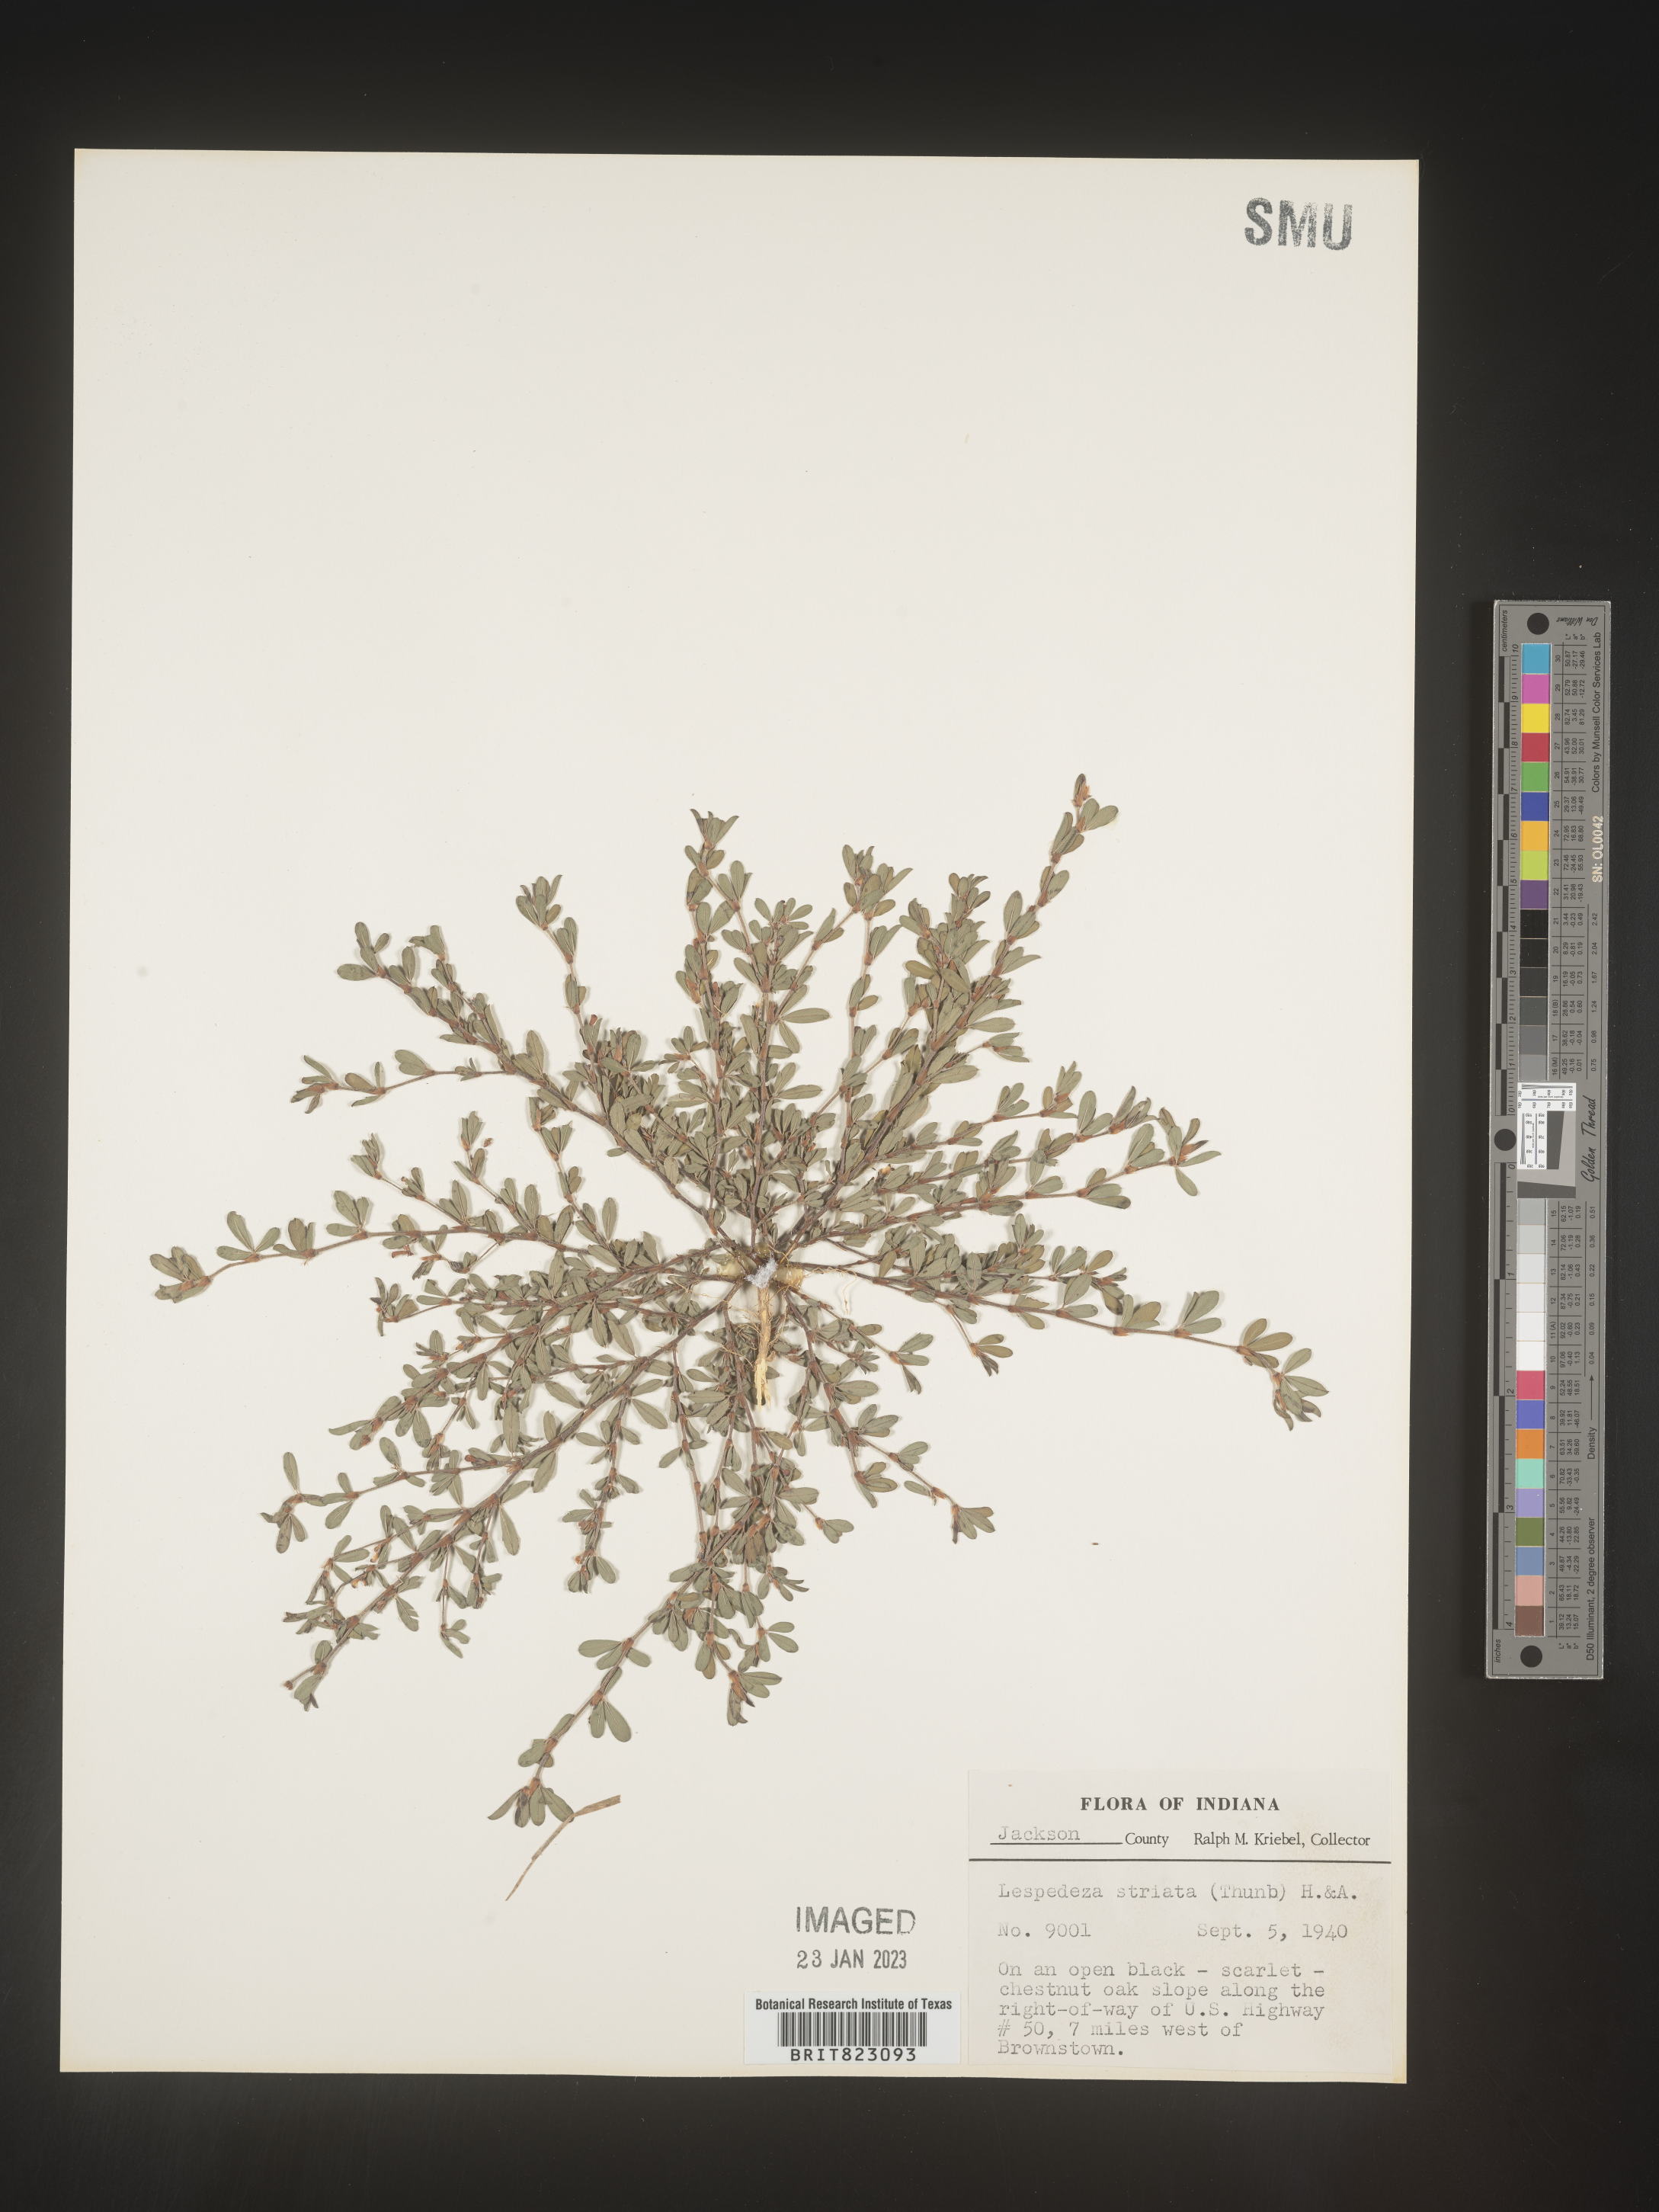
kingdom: Plantae
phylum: Tracheophyta
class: Magnoliopsida
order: Fabales
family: Fabaceae
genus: Kummerowia
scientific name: Kummerowia striata
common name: Japanese clover
